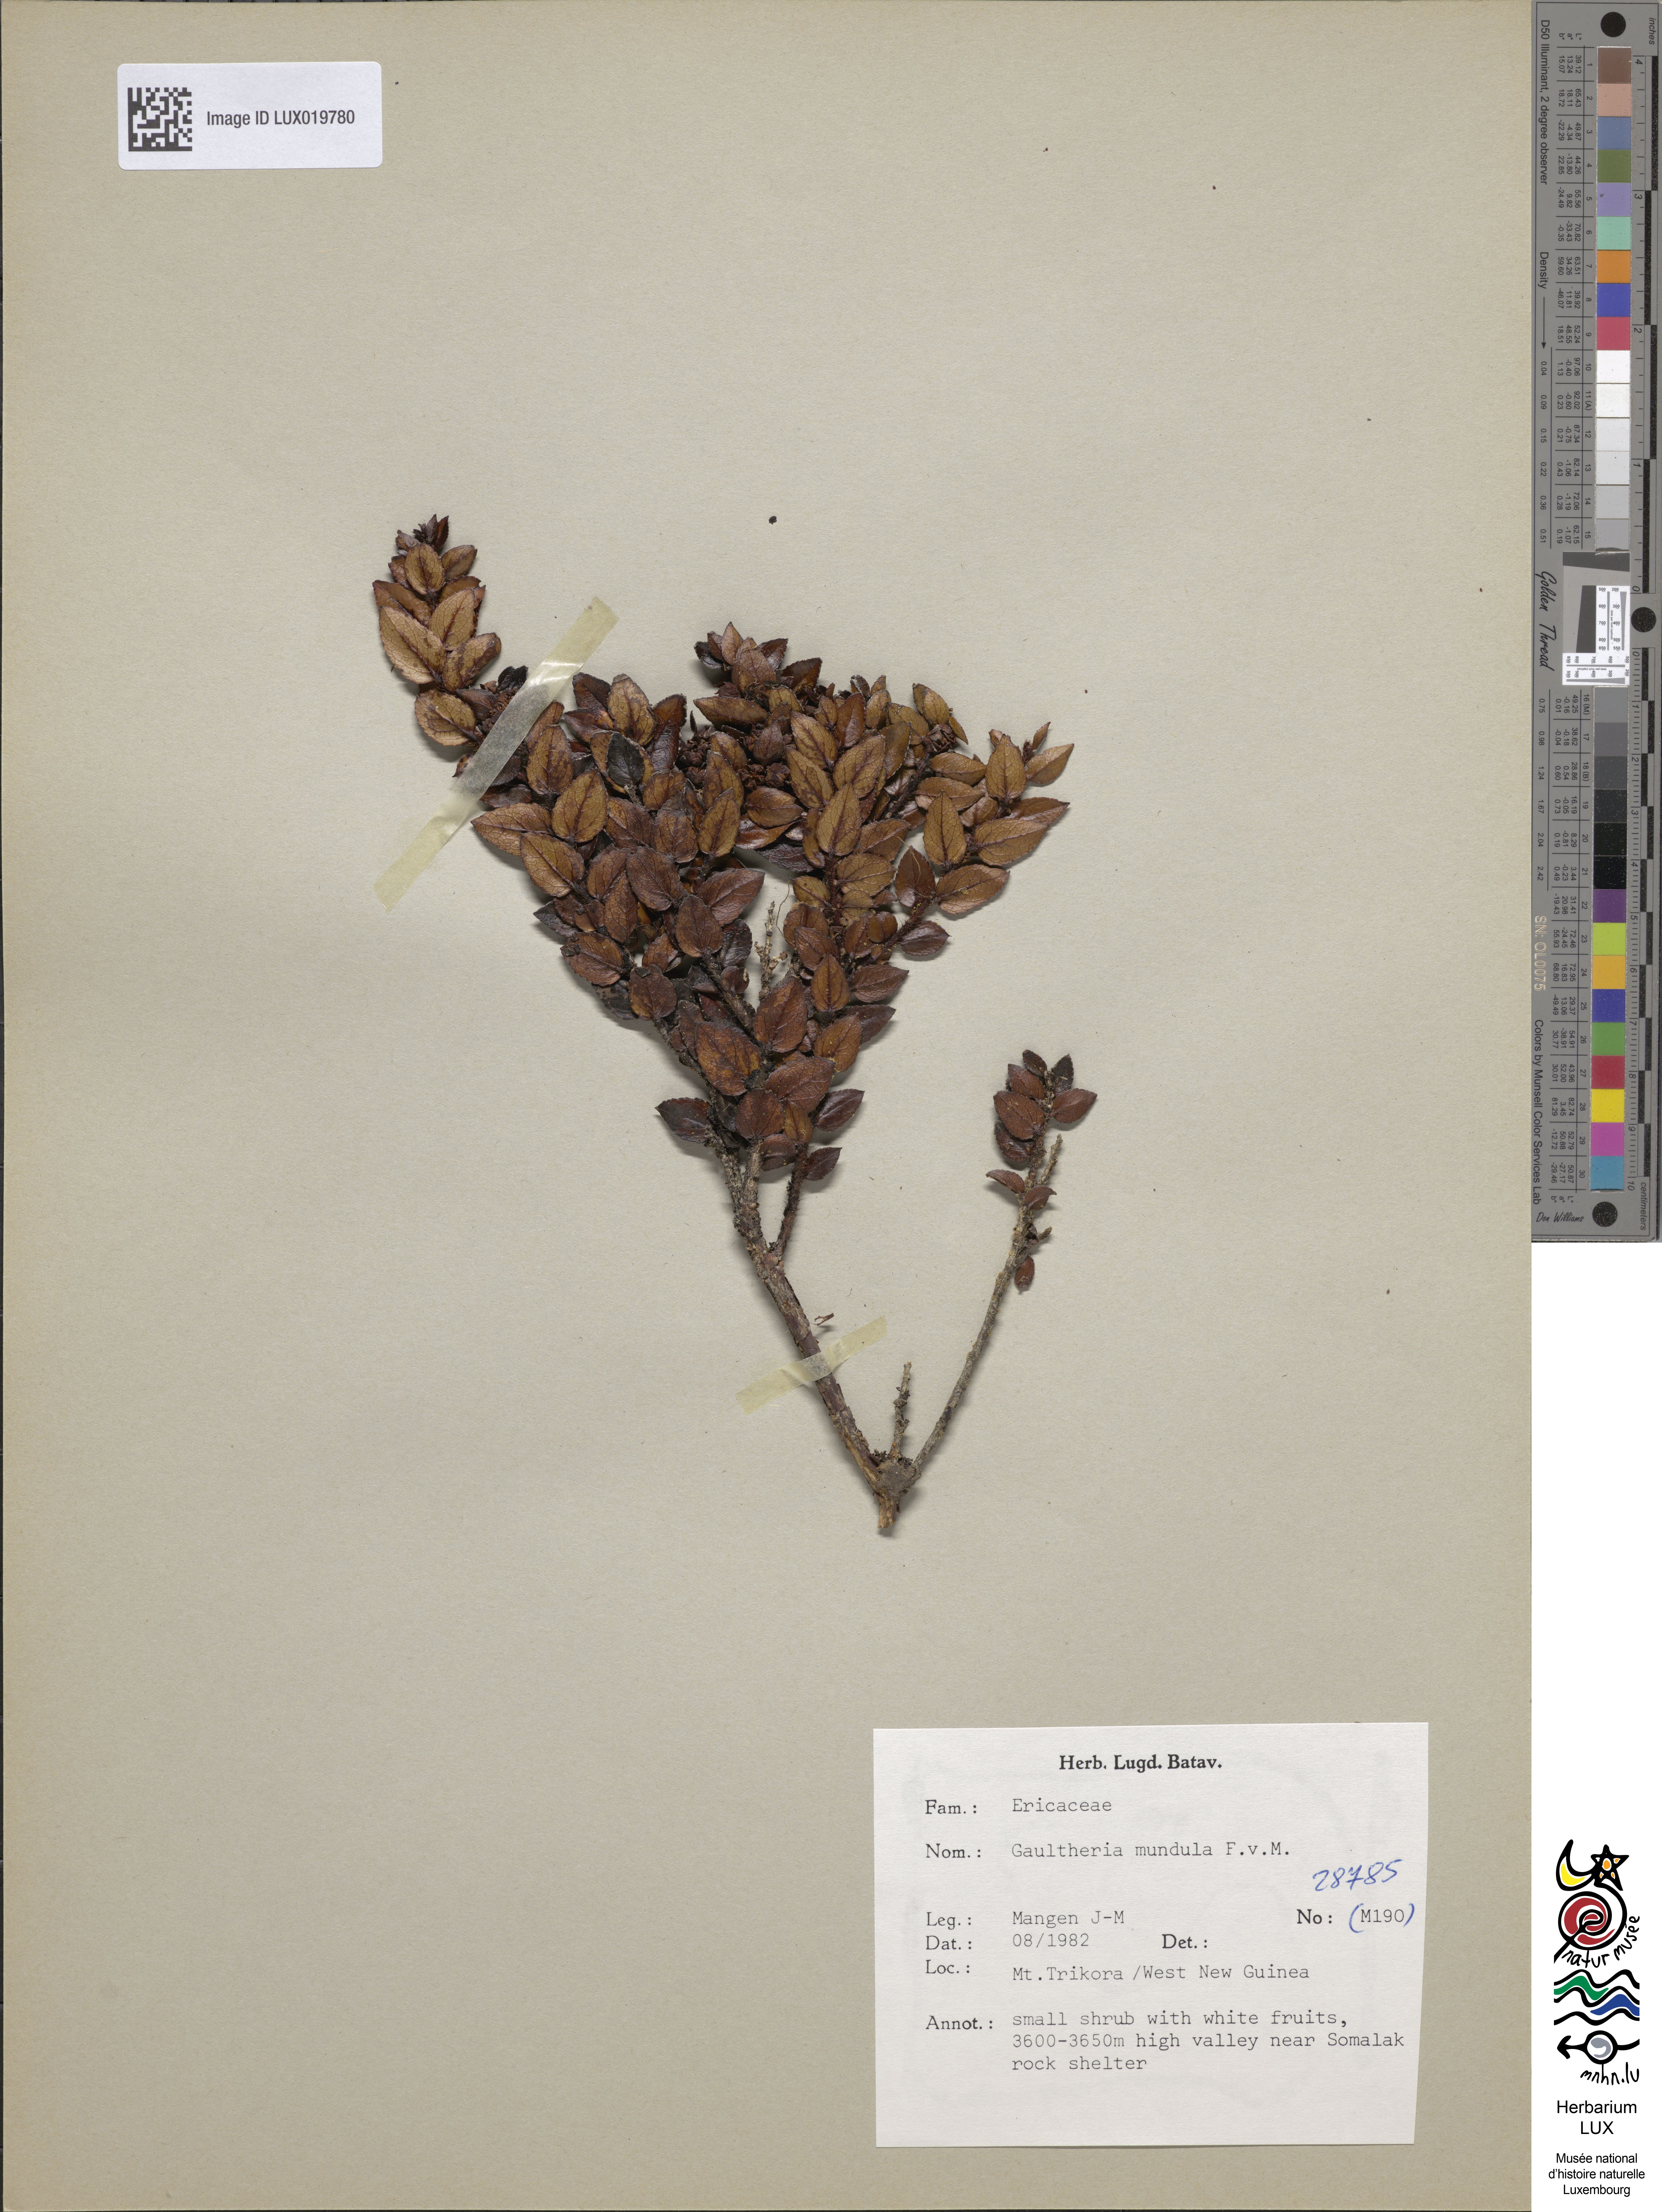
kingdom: Plantae
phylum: Tracheophyta
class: Magnoliopsida
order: Ericales
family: Ericaceae
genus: Gaultheria
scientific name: Gaultheria mundula
